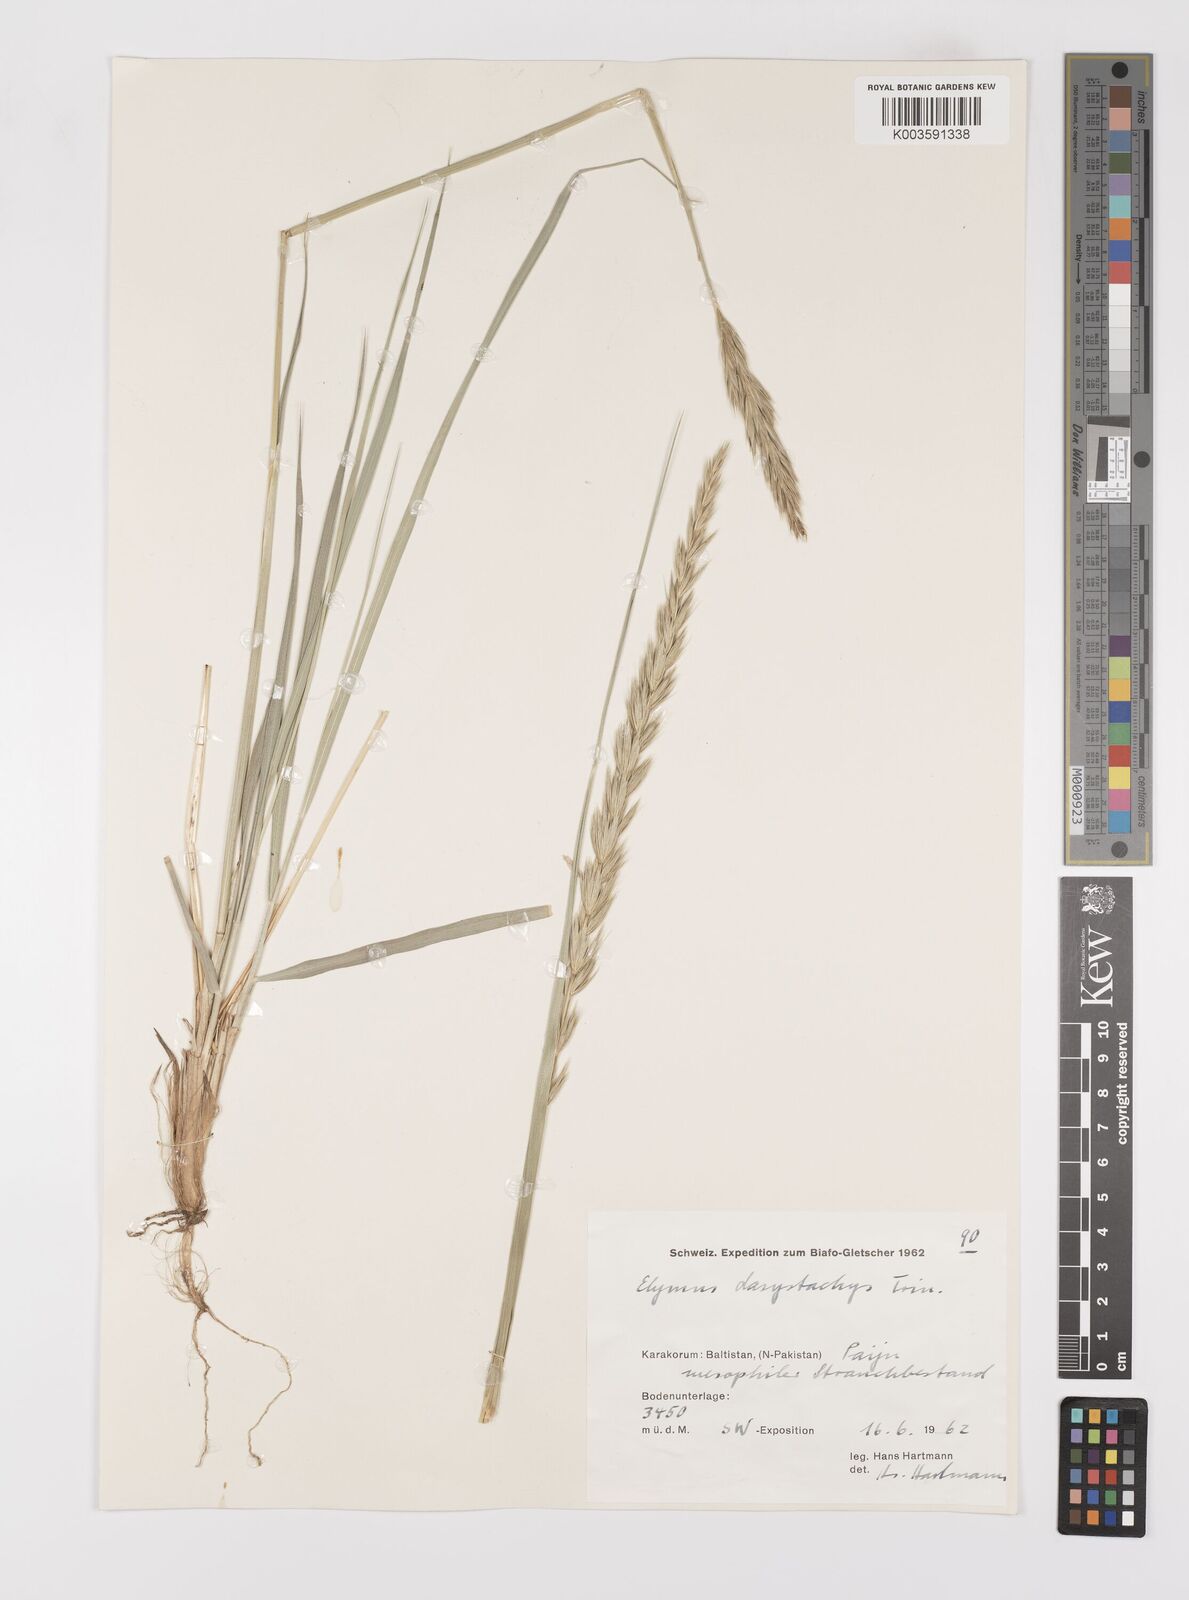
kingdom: Plantae
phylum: Tracheophyta
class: Liliopsida
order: Poales
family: Poaceae
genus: Leymus
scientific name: Leymus secalinus
